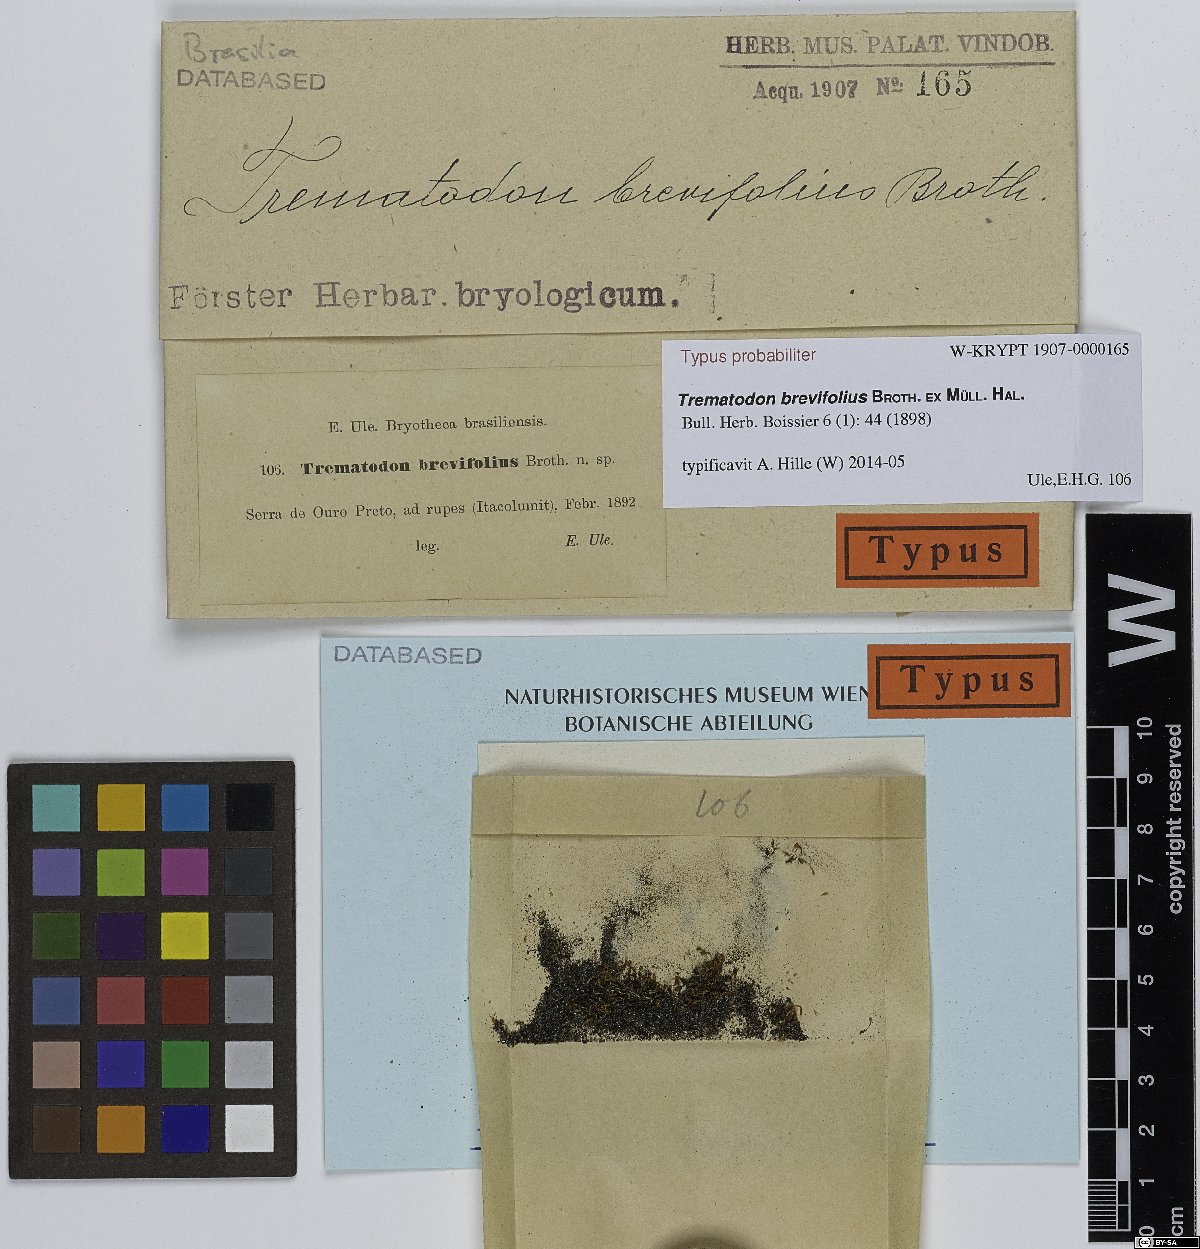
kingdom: Plantae
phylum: Bryophyta
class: Bryopsida
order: Dicranales
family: Bruchiaceae
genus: Trematodon
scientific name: Trematodon brevifolius
